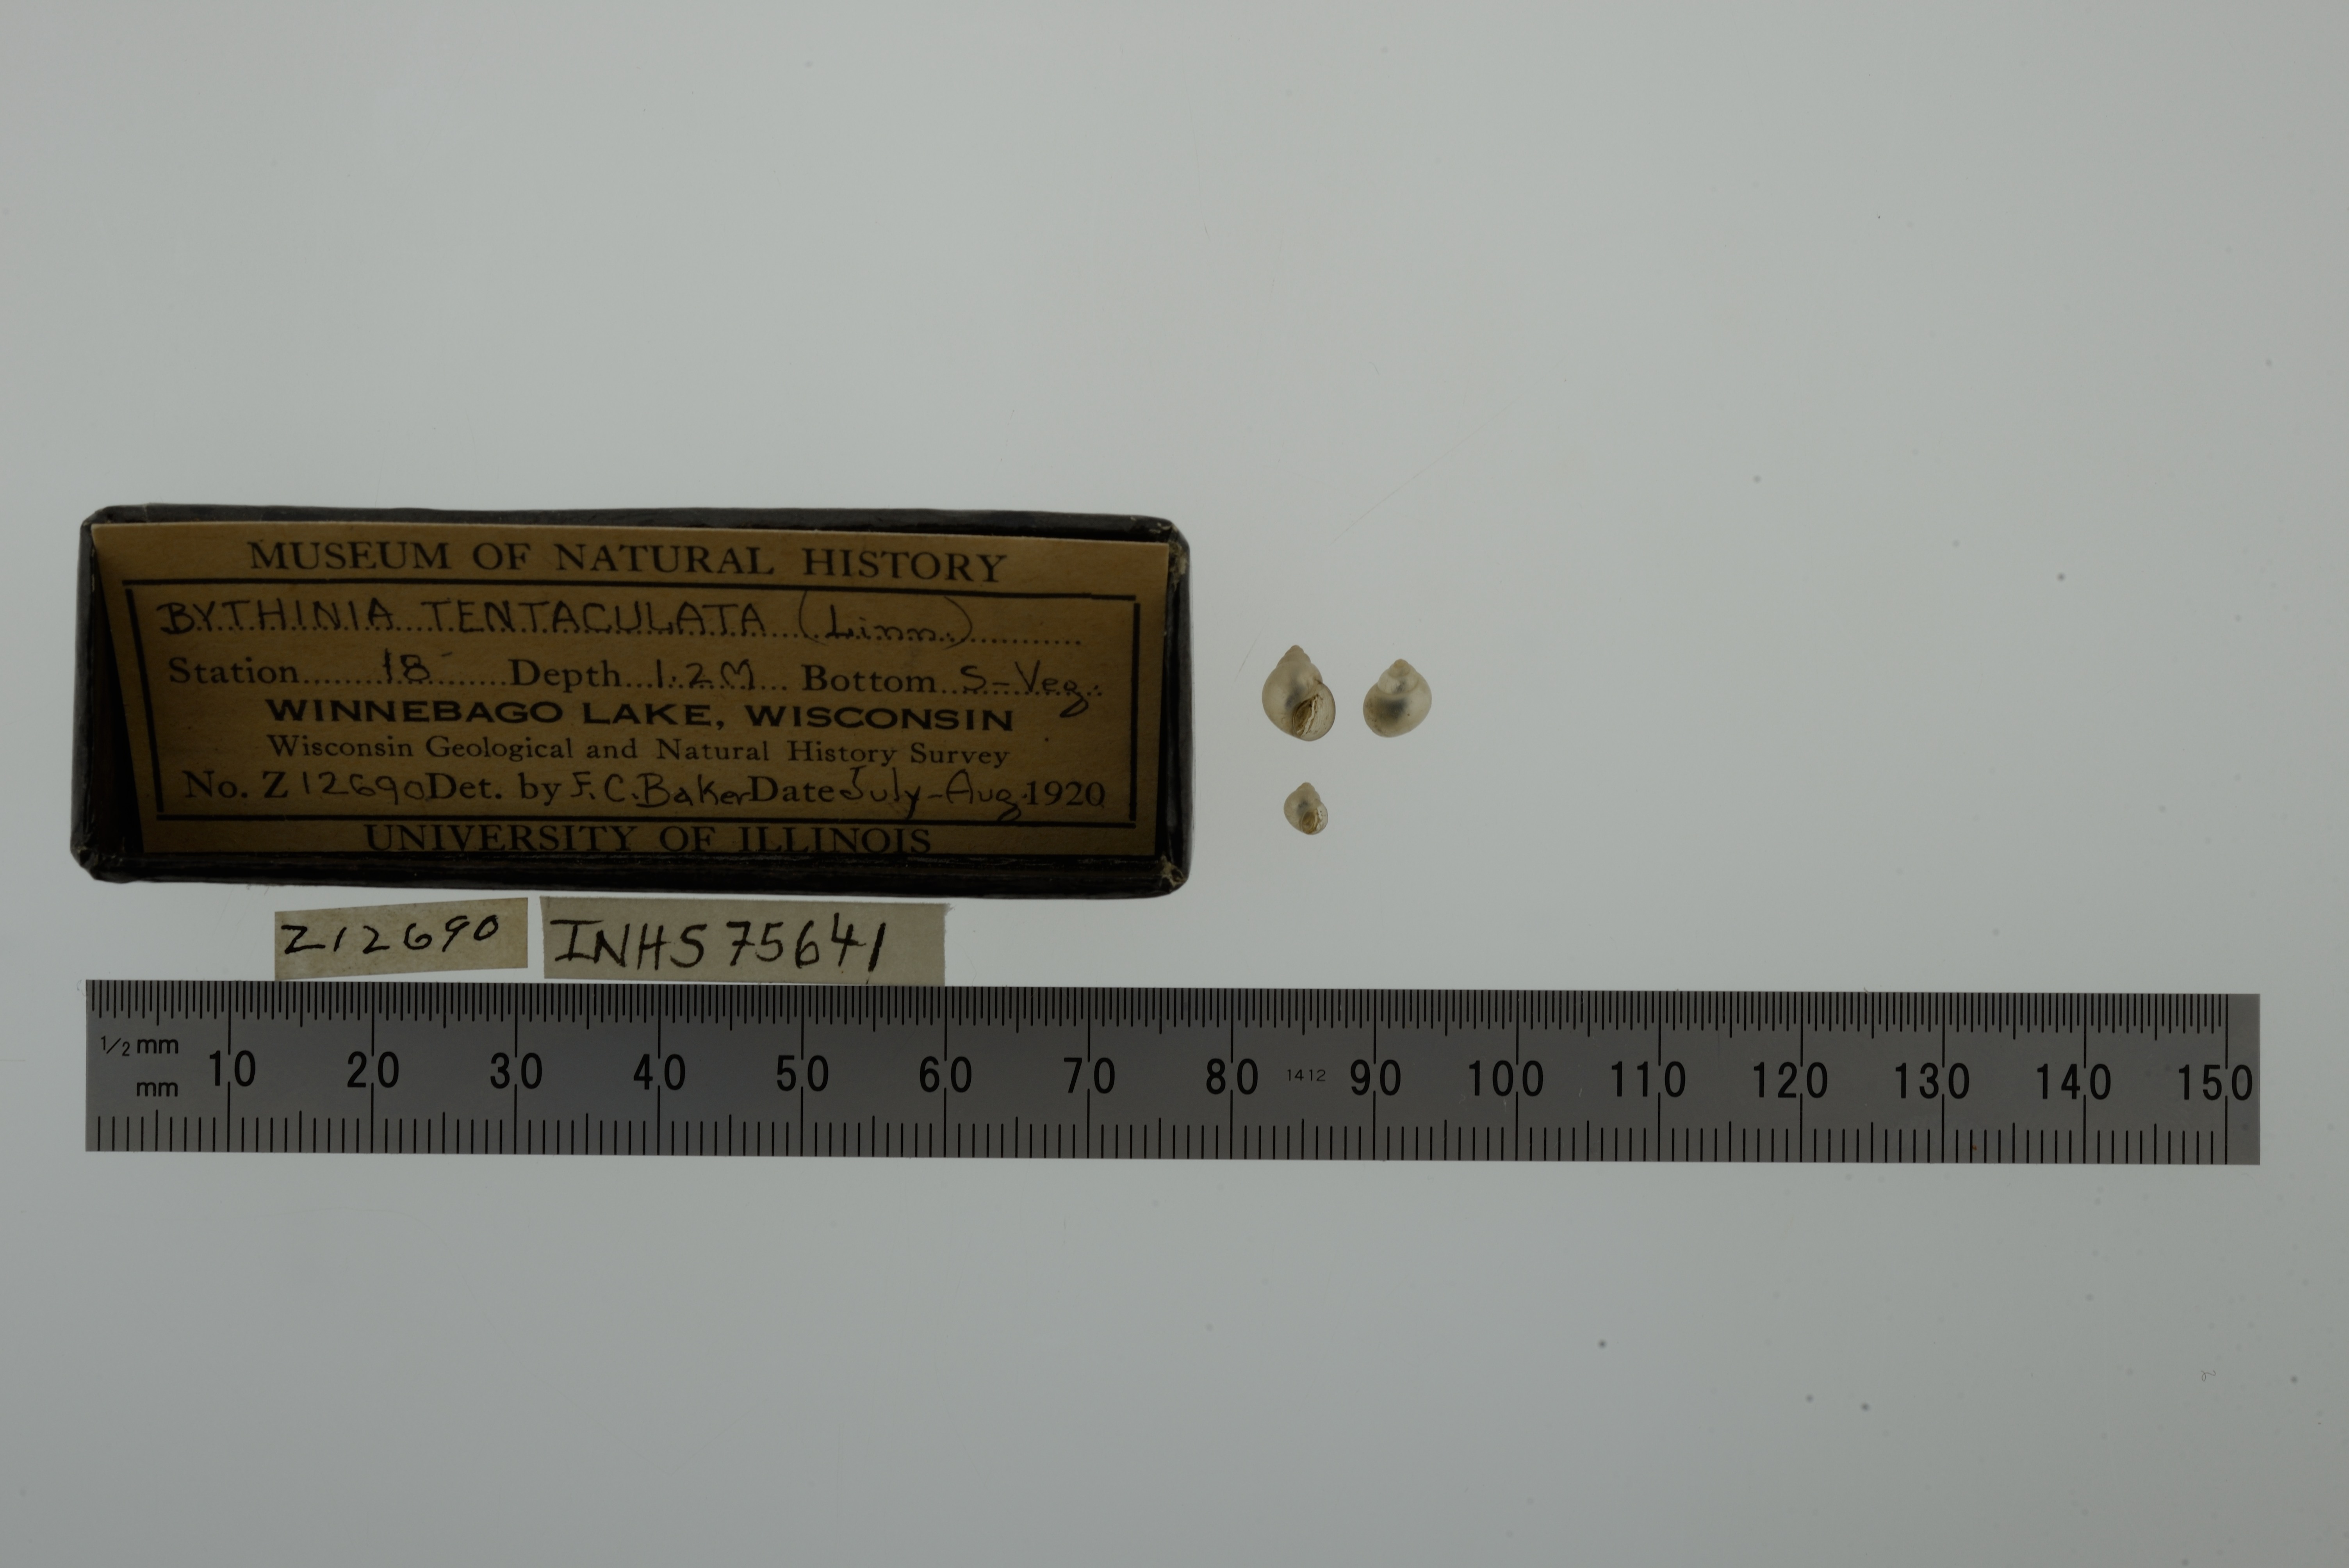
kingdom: Animalia
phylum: Mollusca
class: Gastropoda
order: Littorinimorpha
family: Bithyniidae
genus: Bithynia
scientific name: Bithynia tentaculata
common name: Common bithynia
